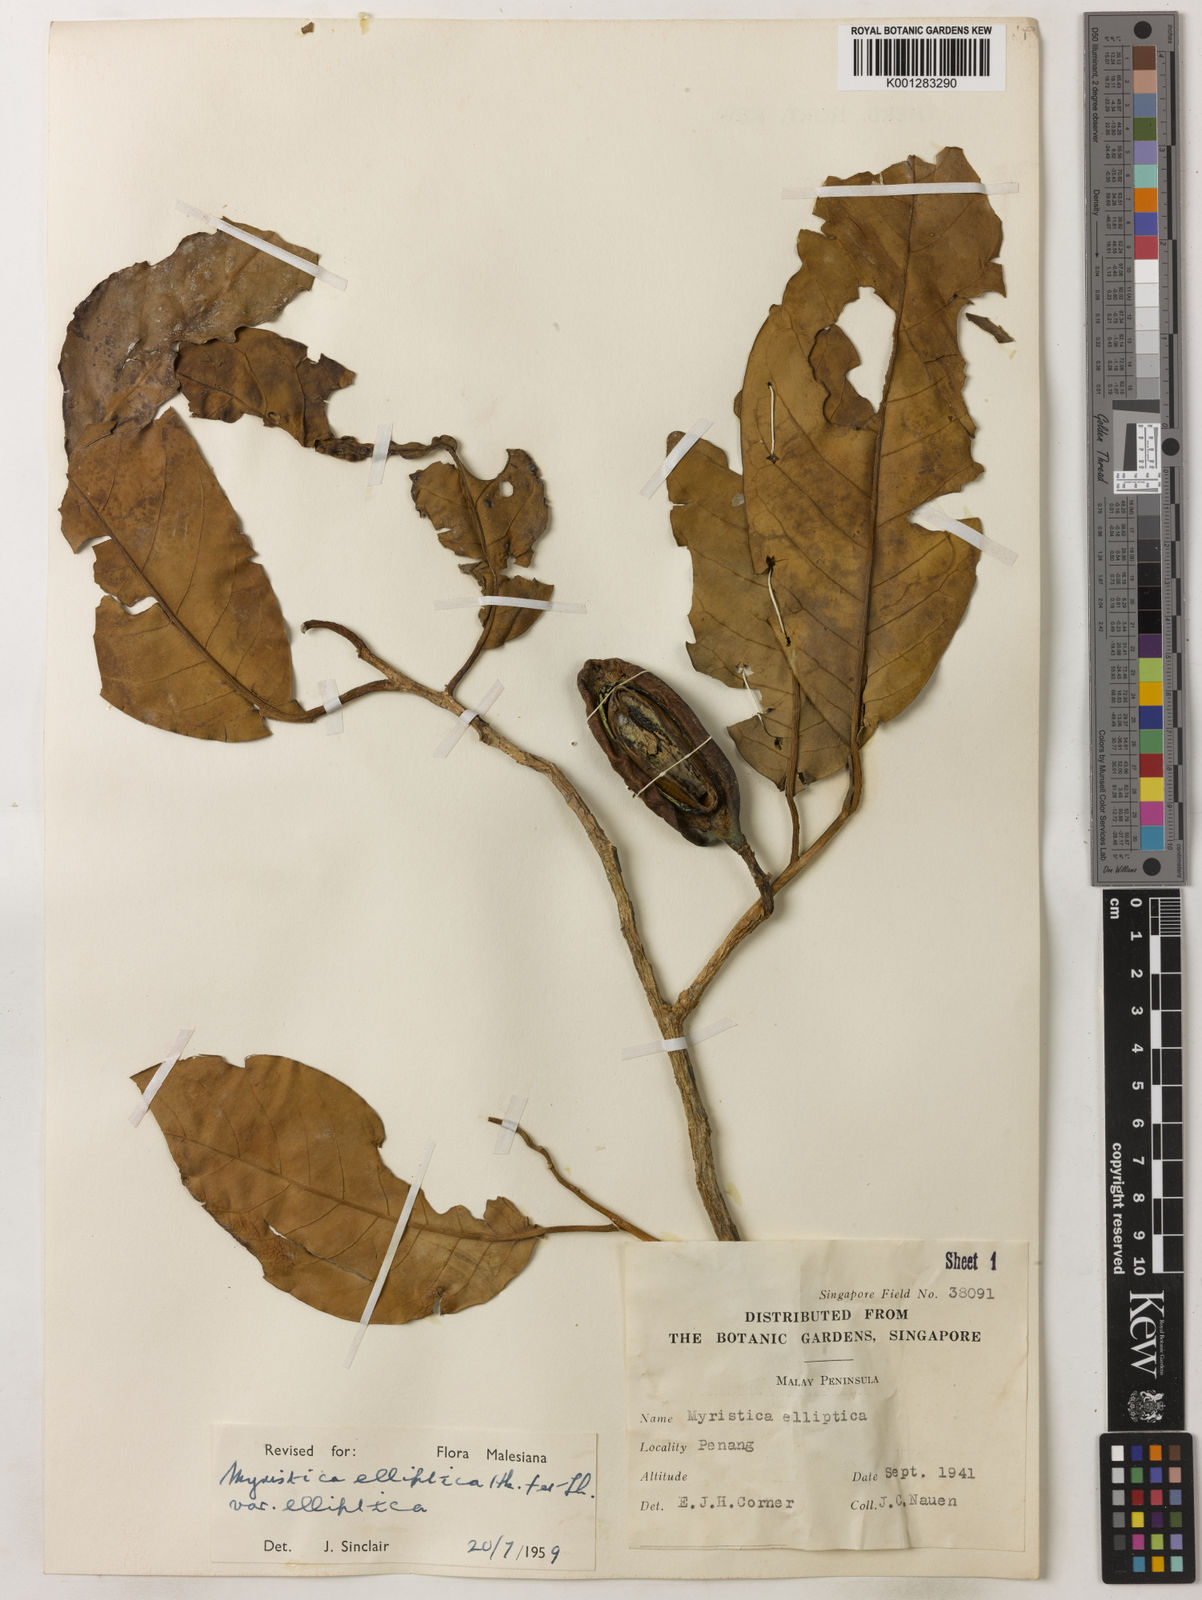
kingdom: Plantae
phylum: Tracheophyta
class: Magnoliopsida
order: Magnoliales
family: Myristicaceae
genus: Myristica
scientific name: Myristica elliptica
